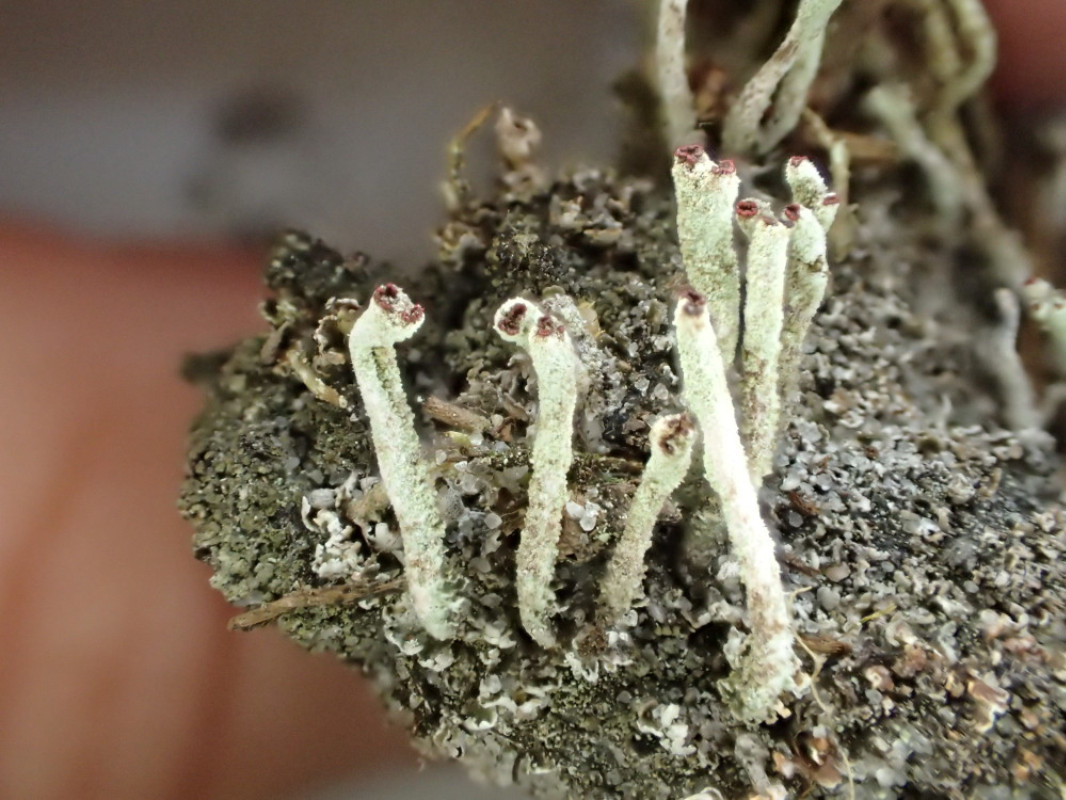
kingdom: Fungi
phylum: Ascomycota
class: Lecanoromycetes
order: Lecanorales
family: Cladoniaceae
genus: Cladonia
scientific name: Cladonia macilenta
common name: indsvunden bægerlav
